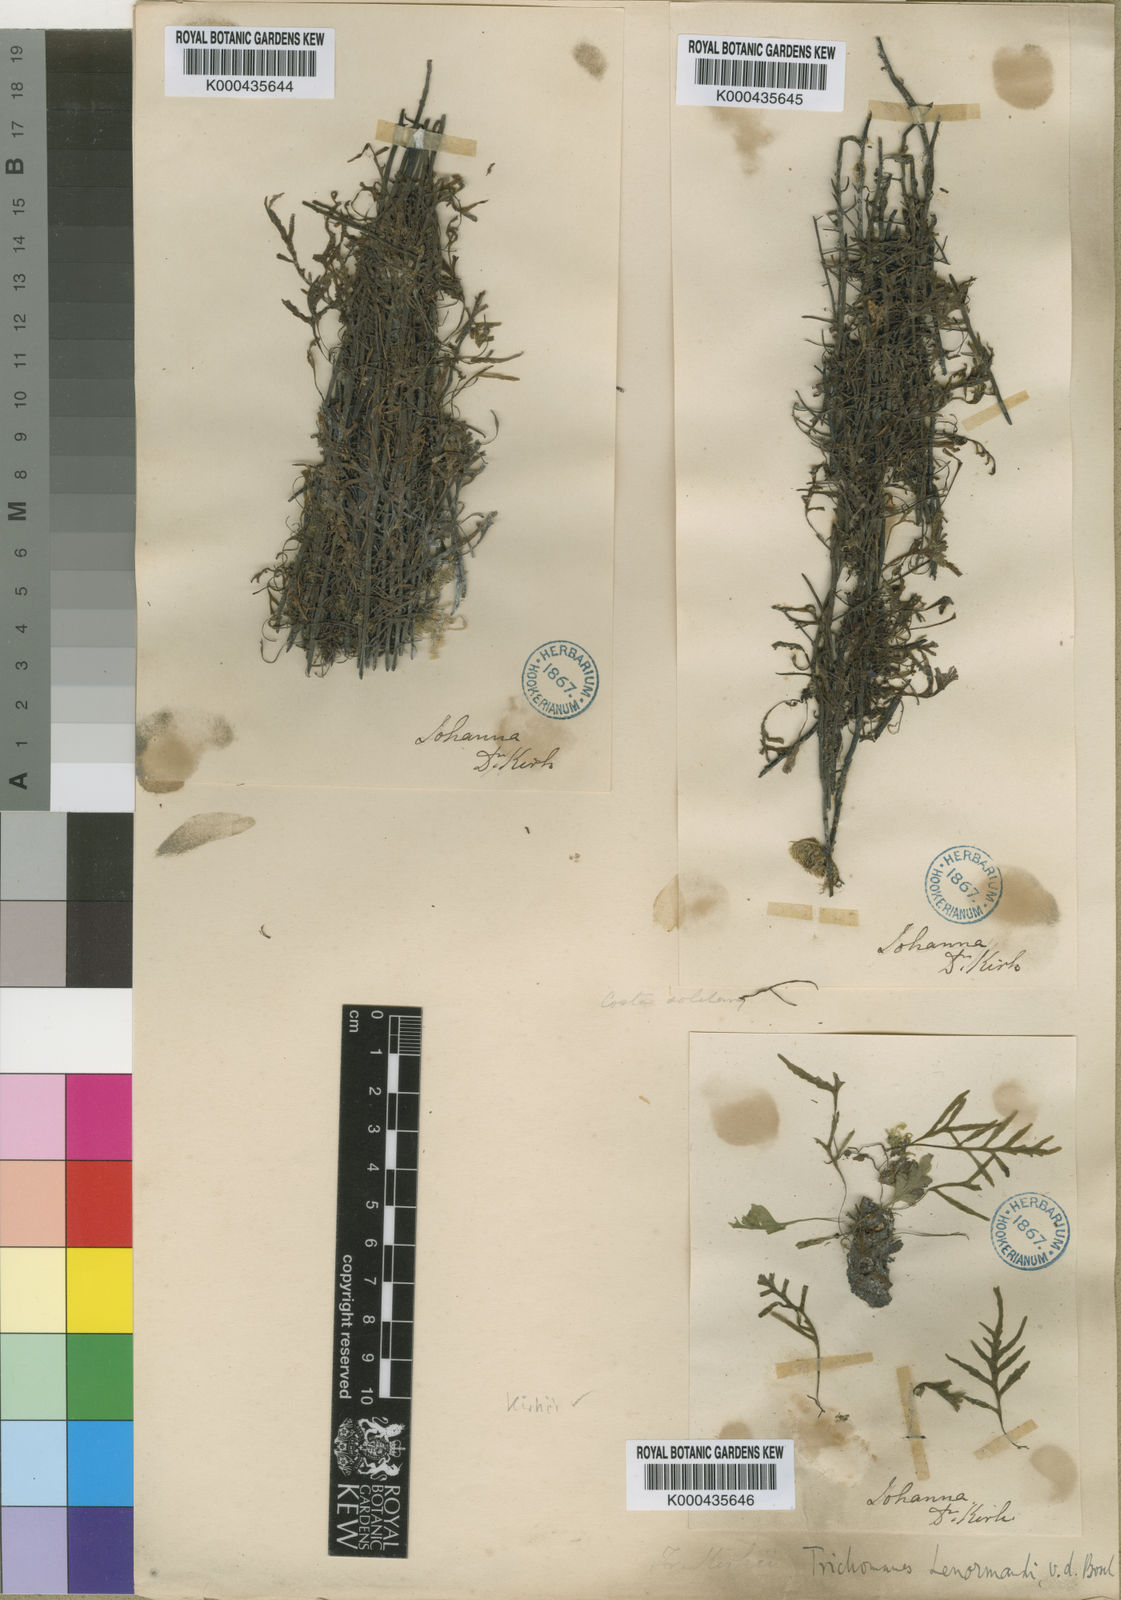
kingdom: Plantae
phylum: Tracheophyta
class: Polypodiopsida
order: Hymenophyllales
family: Hymenophyllaceae
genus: Didymoglossum
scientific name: Didymoglossum kirkii
